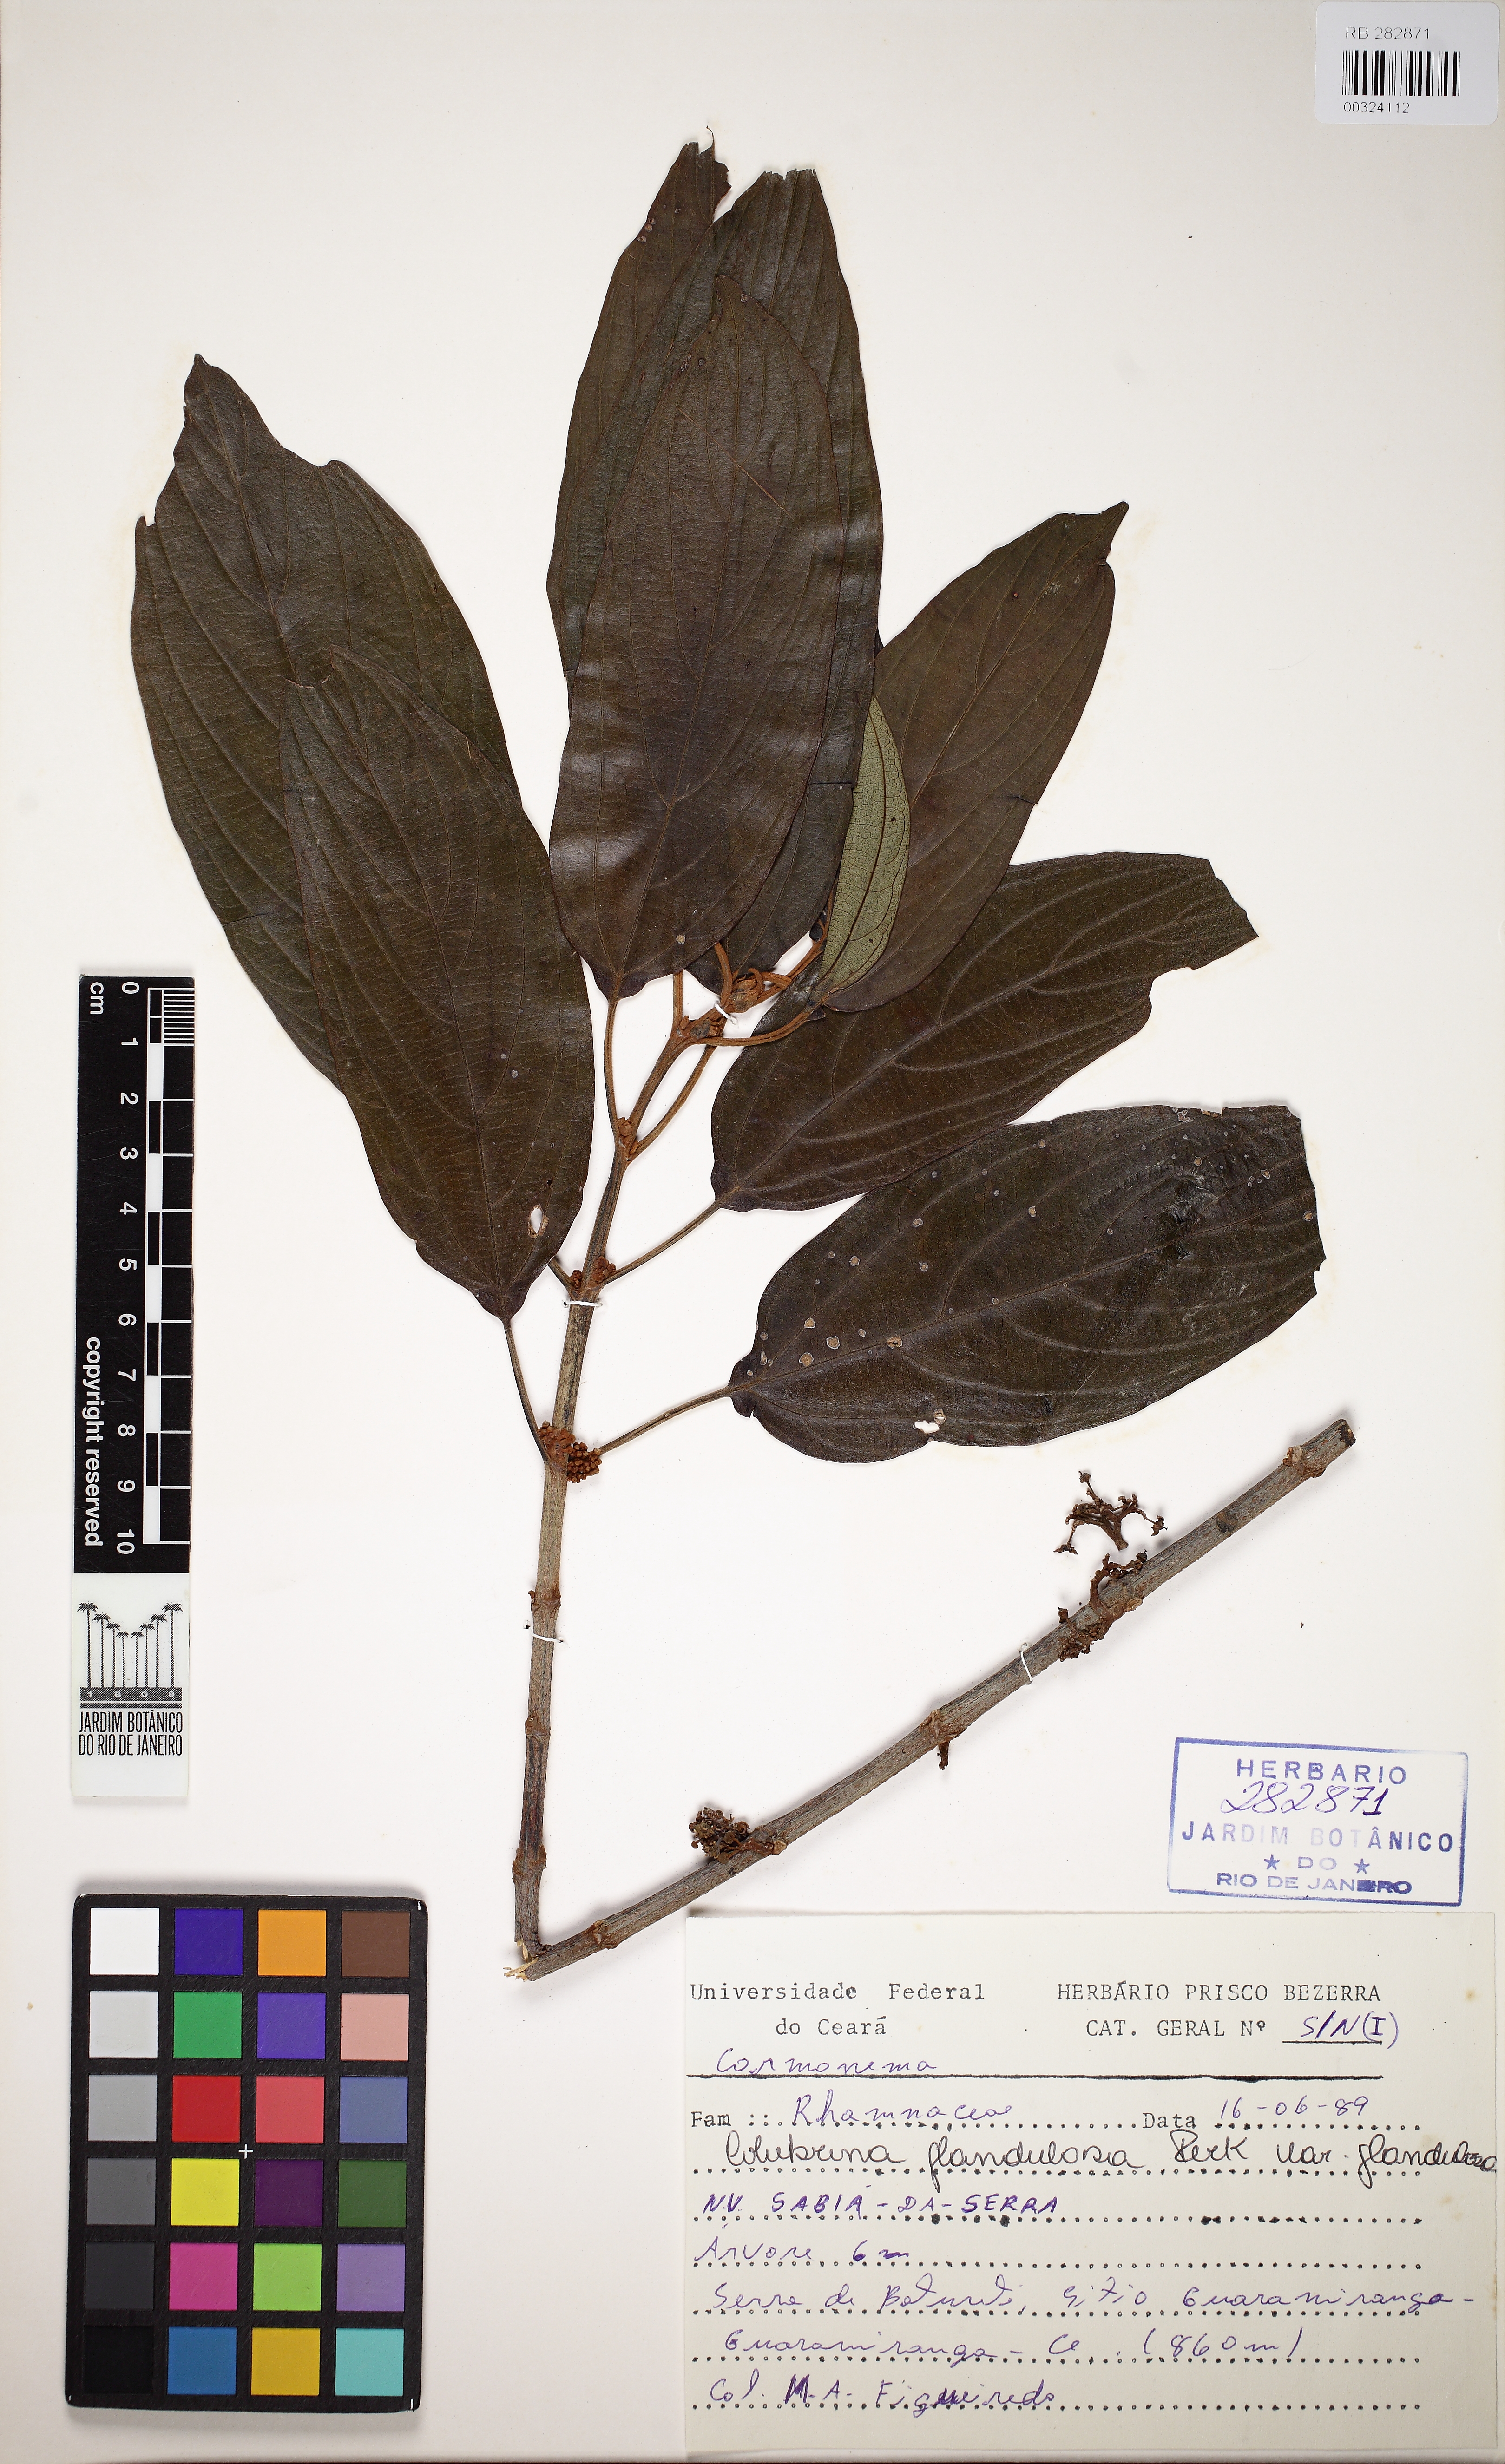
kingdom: Plantae
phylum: Tracheophyta
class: Magnoliopsida
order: Rosales
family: Rhamnaceae
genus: Colubrina
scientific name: Colubrina glandulosa
